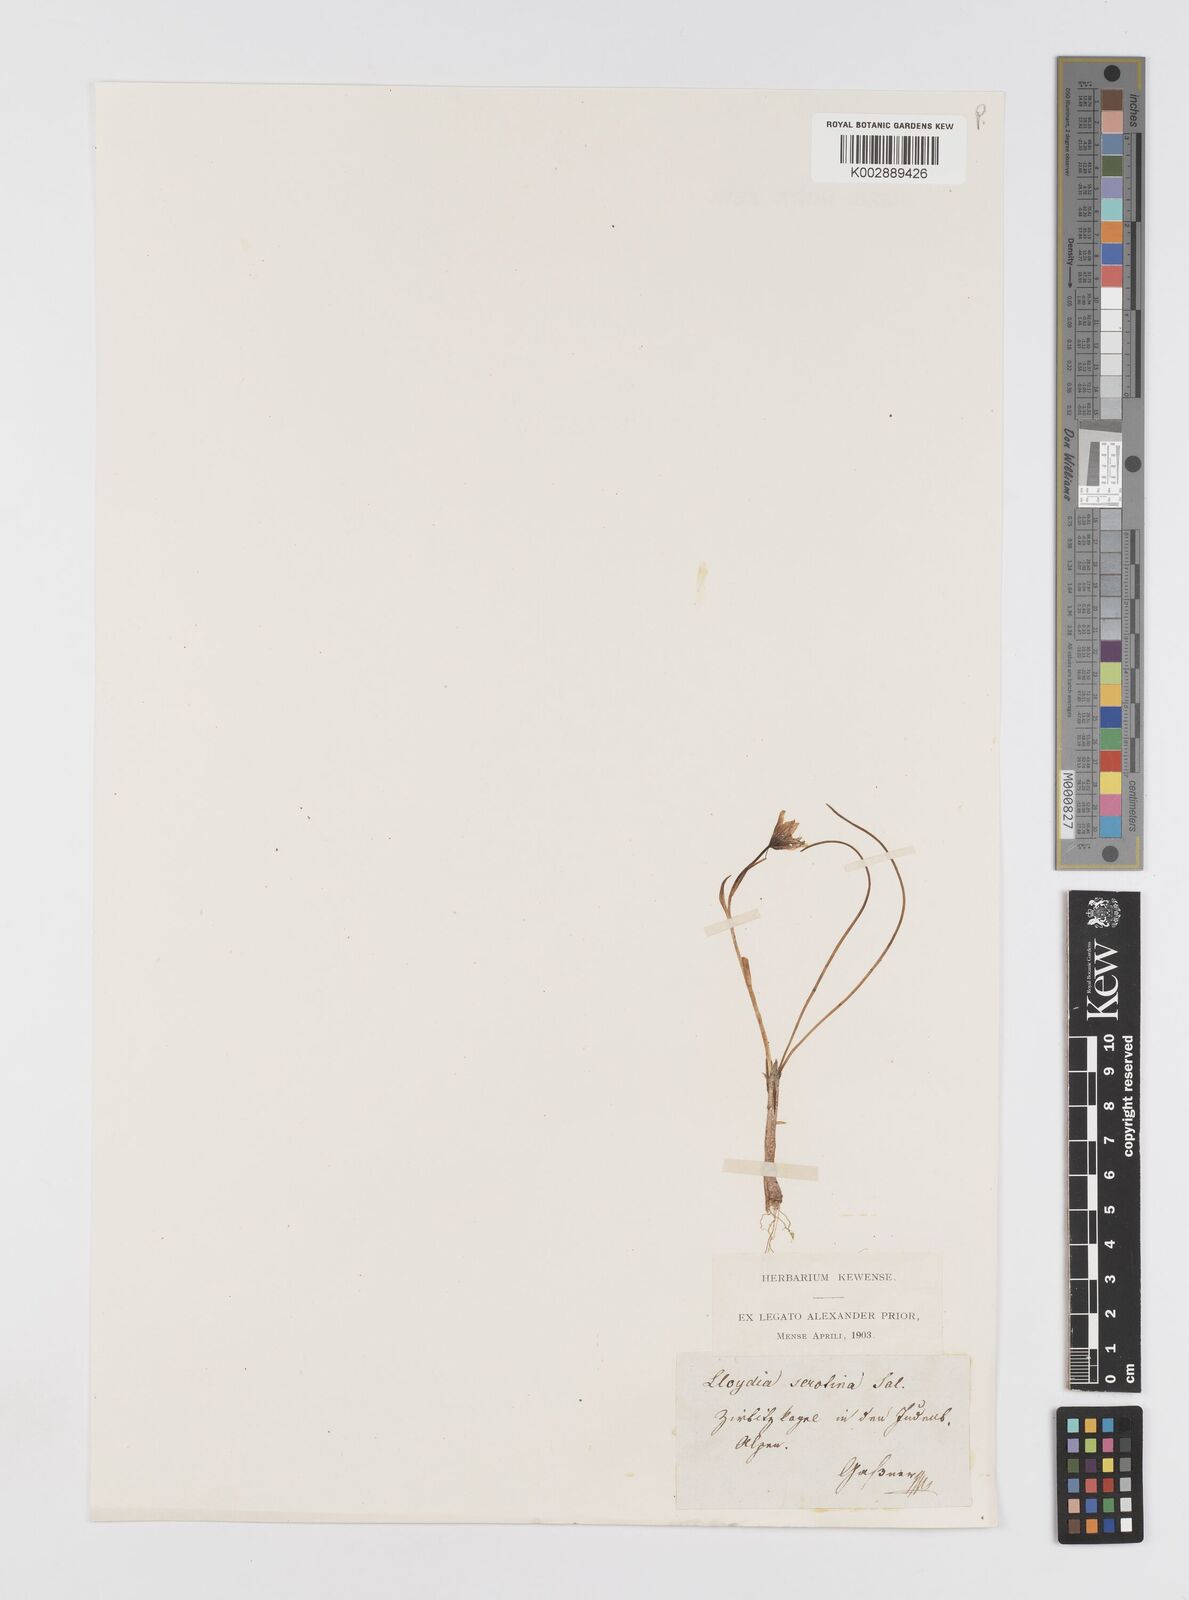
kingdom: Plantae
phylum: Tracheophyta
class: Liliopsida
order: Liliales
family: Liliaceae
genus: Gagea
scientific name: Gagea
